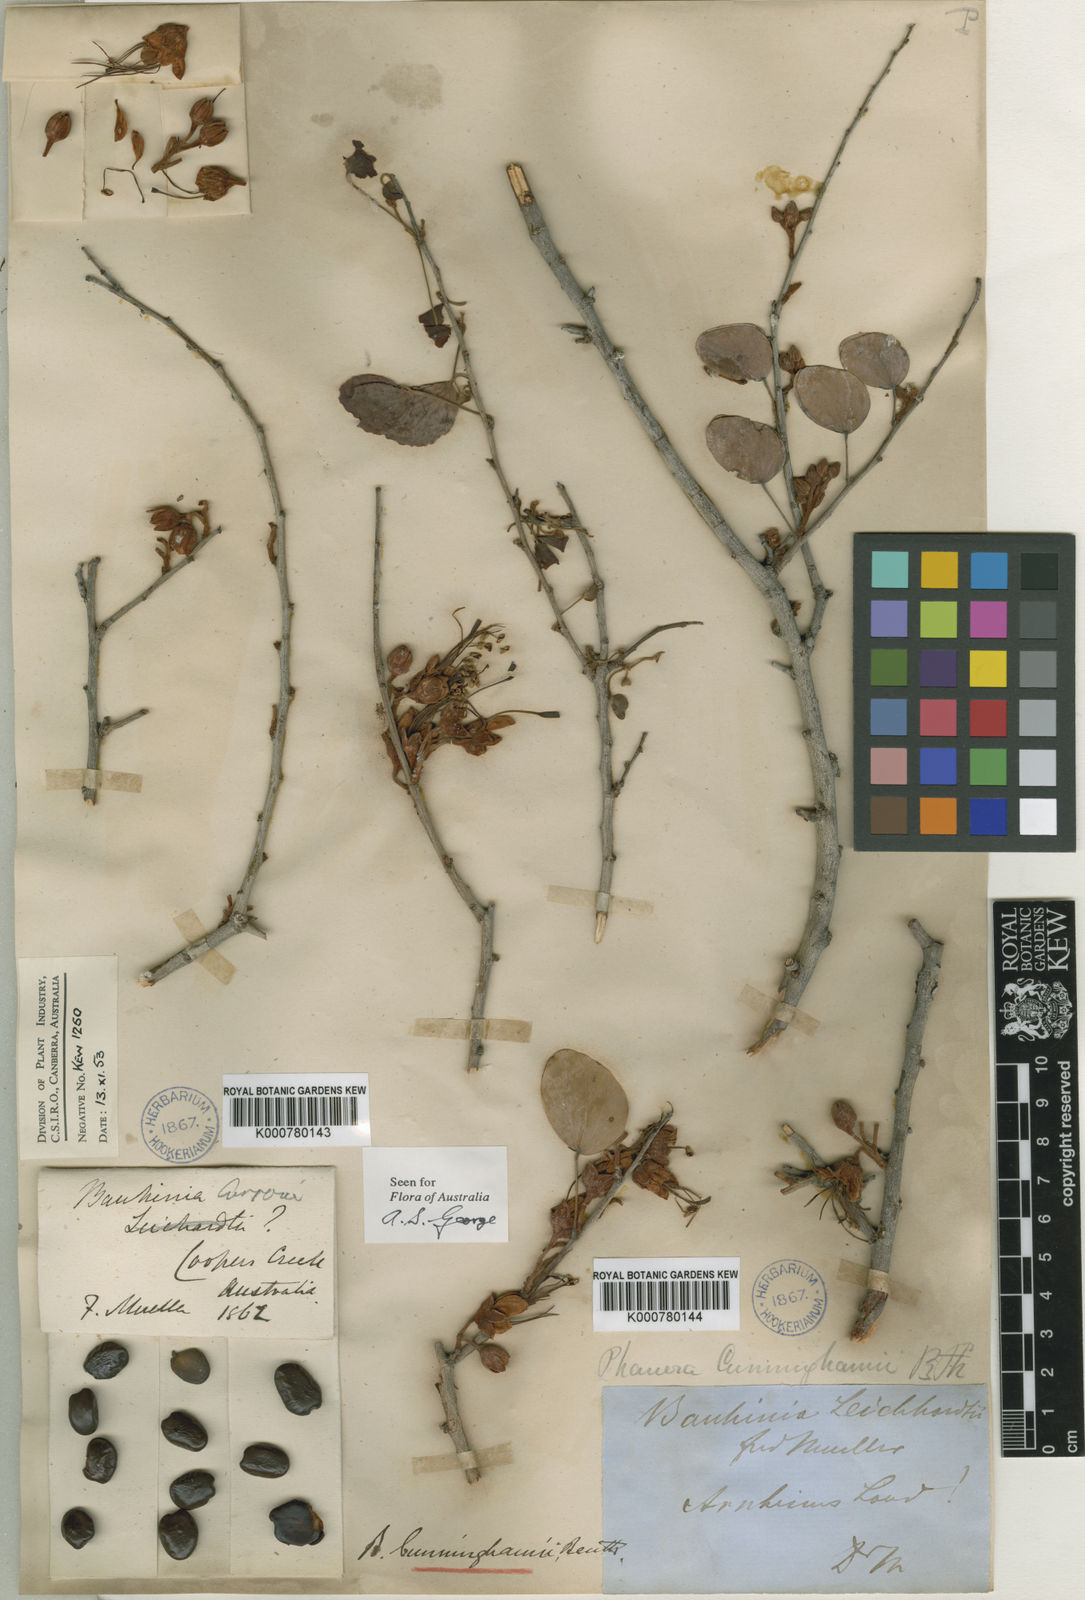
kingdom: Plantae
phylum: Tracheophyta
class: Magnoliopsida
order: Fabales
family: Fabaceae
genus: Lysiphyllum
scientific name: Lysiphyllum cunninghamii
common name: Kimberley bauhinia
